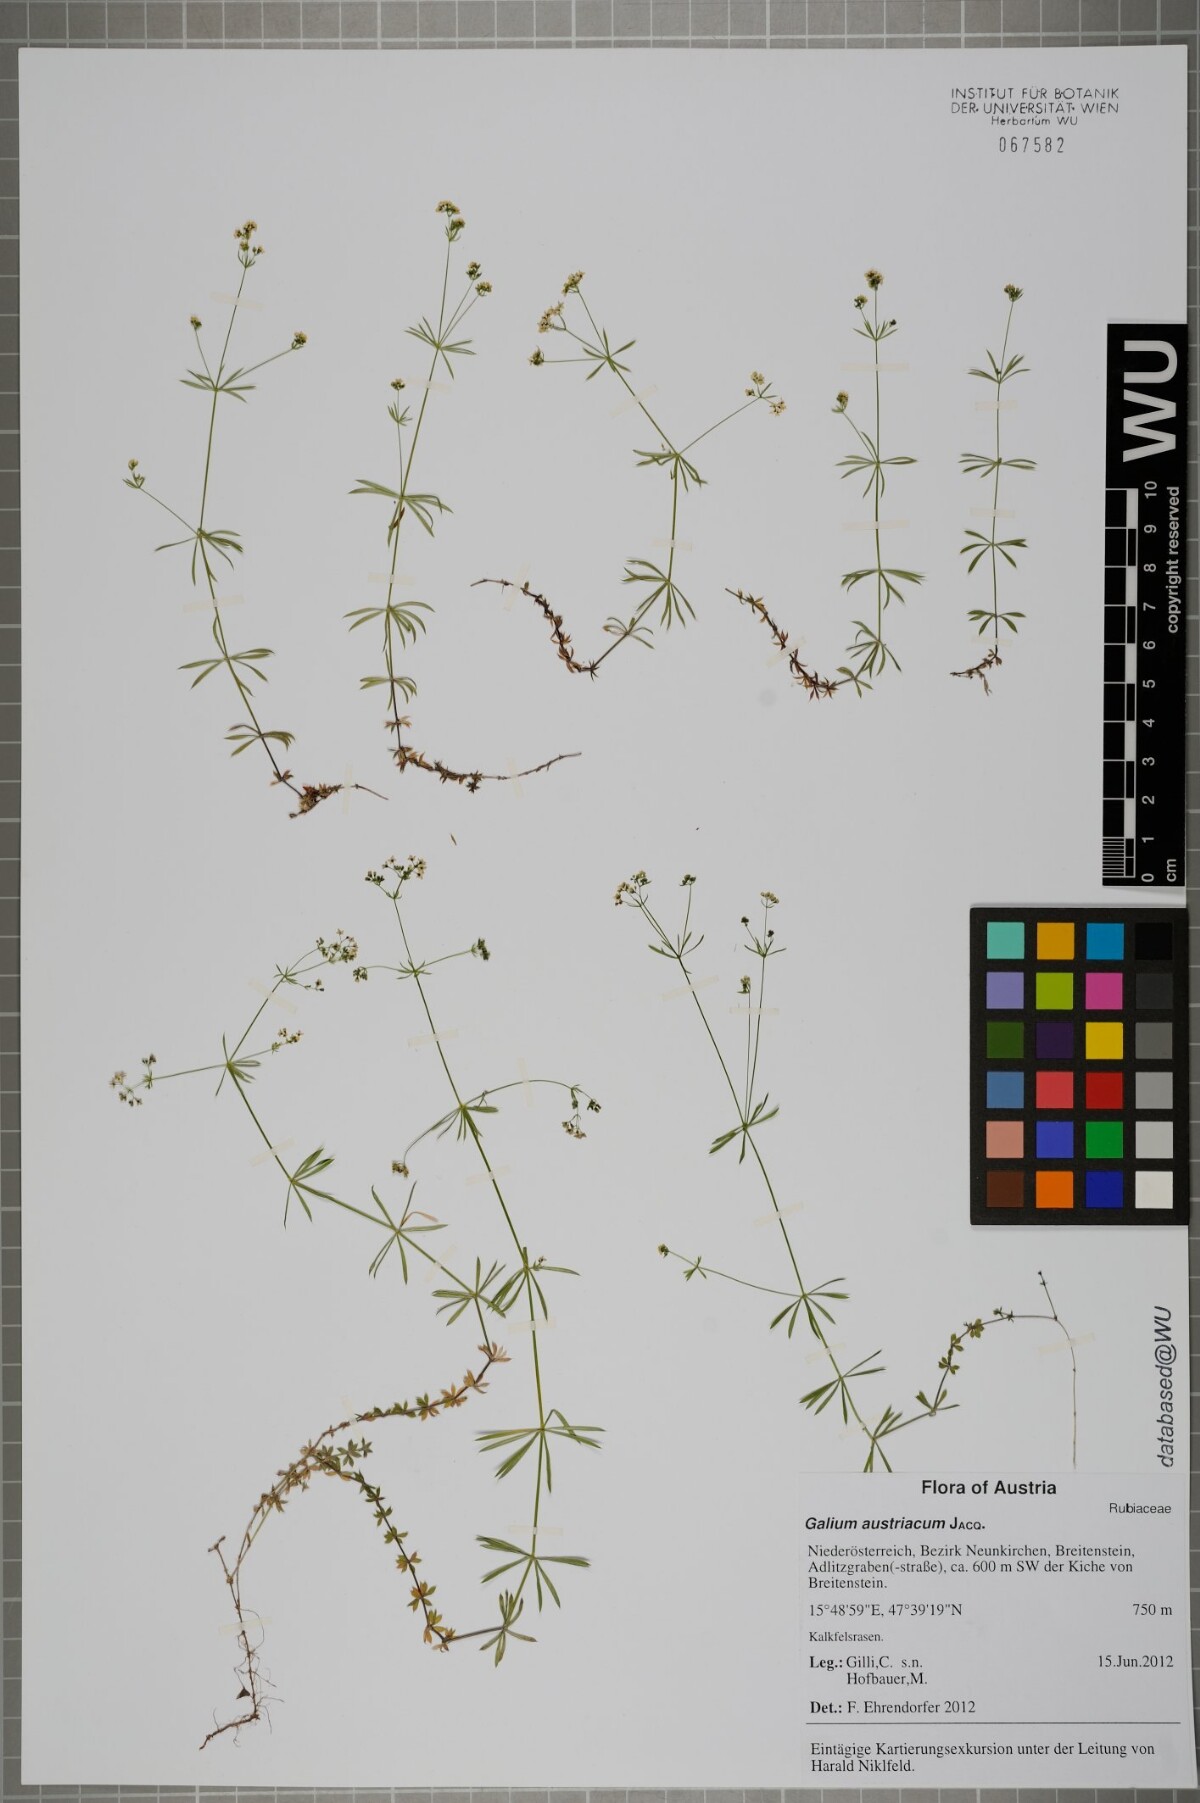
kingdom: Plantae
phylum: Tracheophyta
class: Magnoliopsida
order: Gentianales
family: Rubiaceae
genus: Galium
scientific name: Galium austriacum
